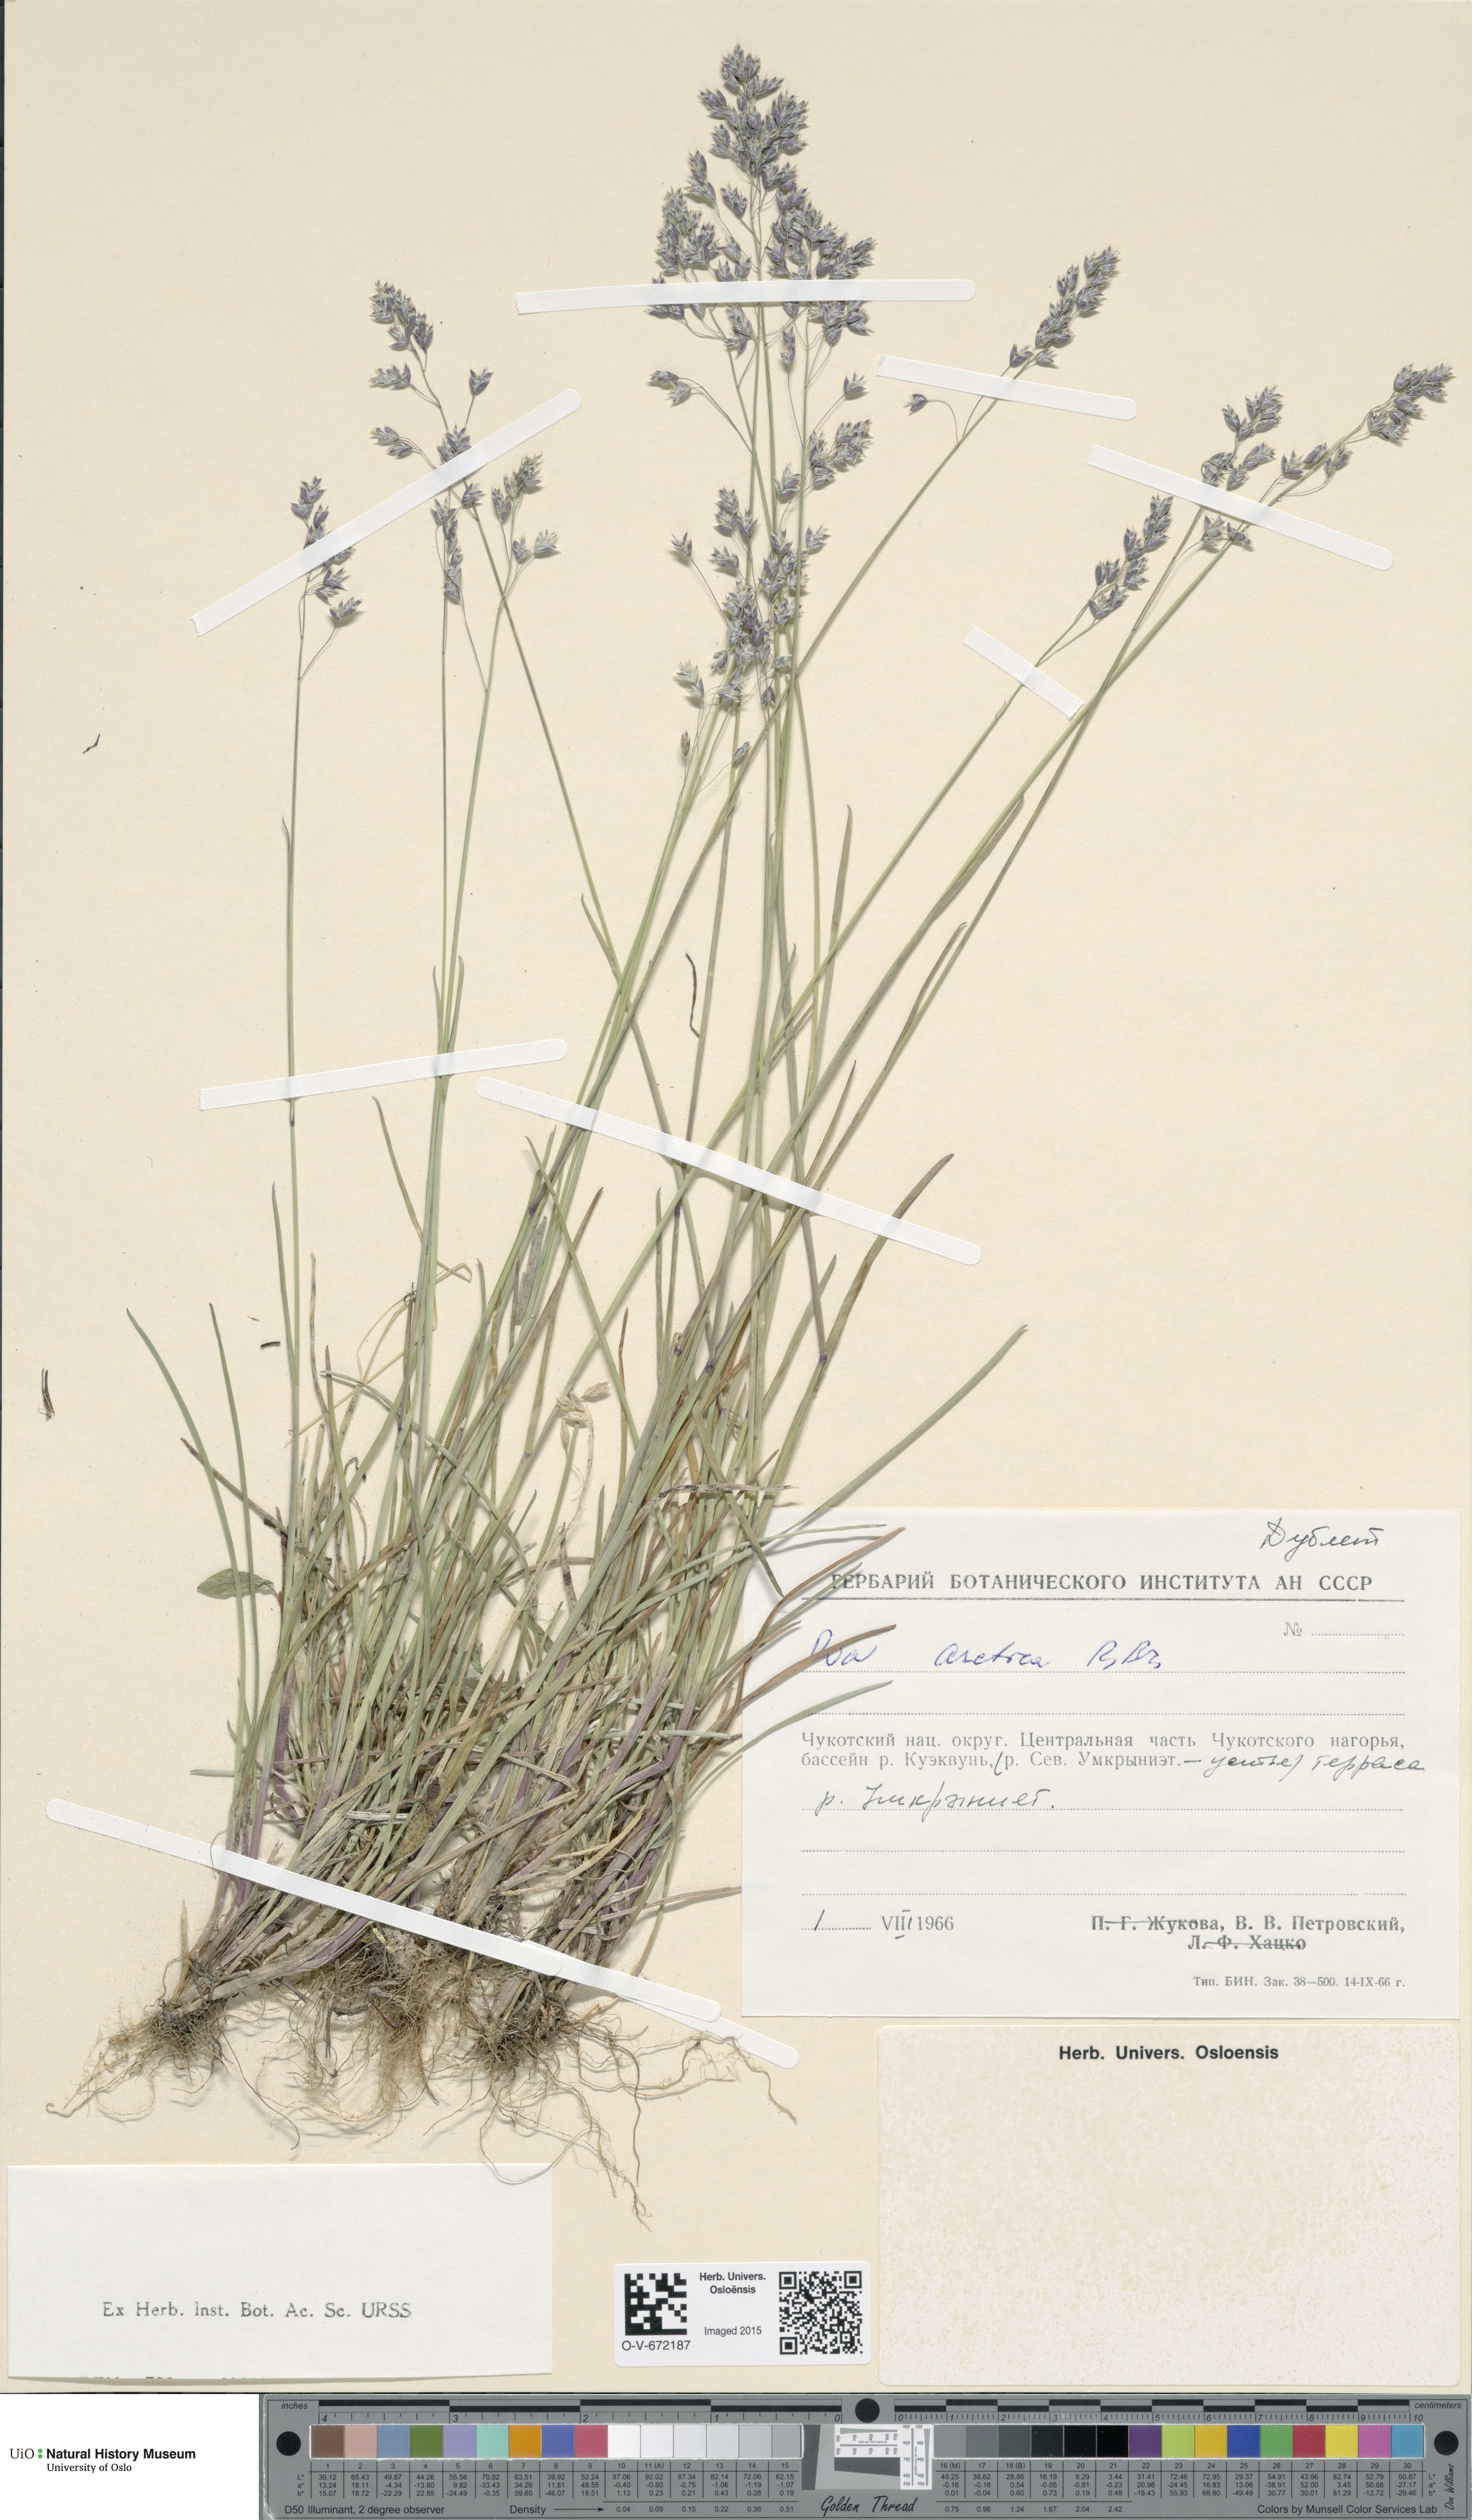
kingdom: Plantae
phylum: Tracheophyta
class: Liliopsida
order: Poales
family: Poaceae
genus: Poa
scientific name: Poa arctica
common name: Arctic bluegrass
